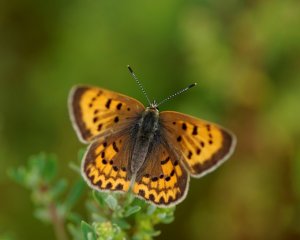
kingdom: Animalia
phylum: Arthropoda
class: Insecta
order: Lepidoptera
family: Sesiidae
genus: Sesia
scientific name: Sesia Lycaena helloides
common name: Purplish Copper
